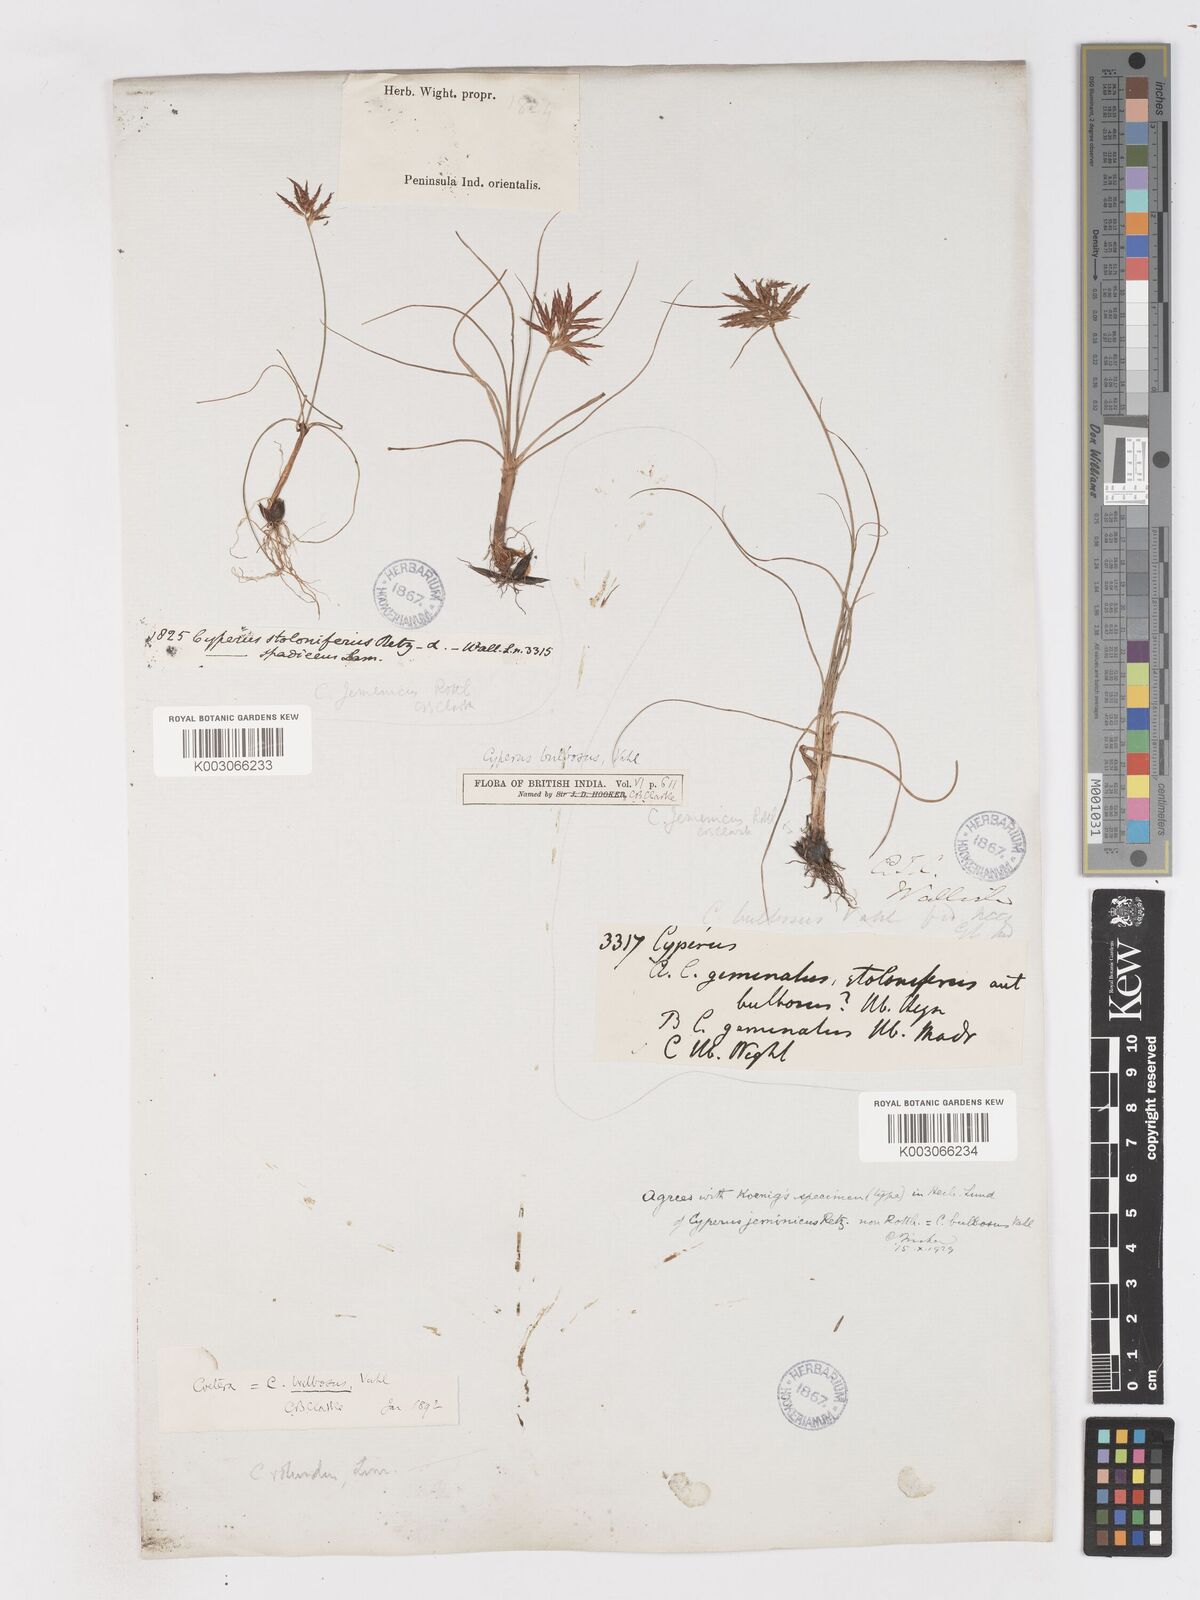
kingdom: Plantae
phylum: Tracheophyta
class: Liliopsida
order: Poales
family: Cyperaceae
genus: Cyperus
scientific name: Cyperus bulbosus
